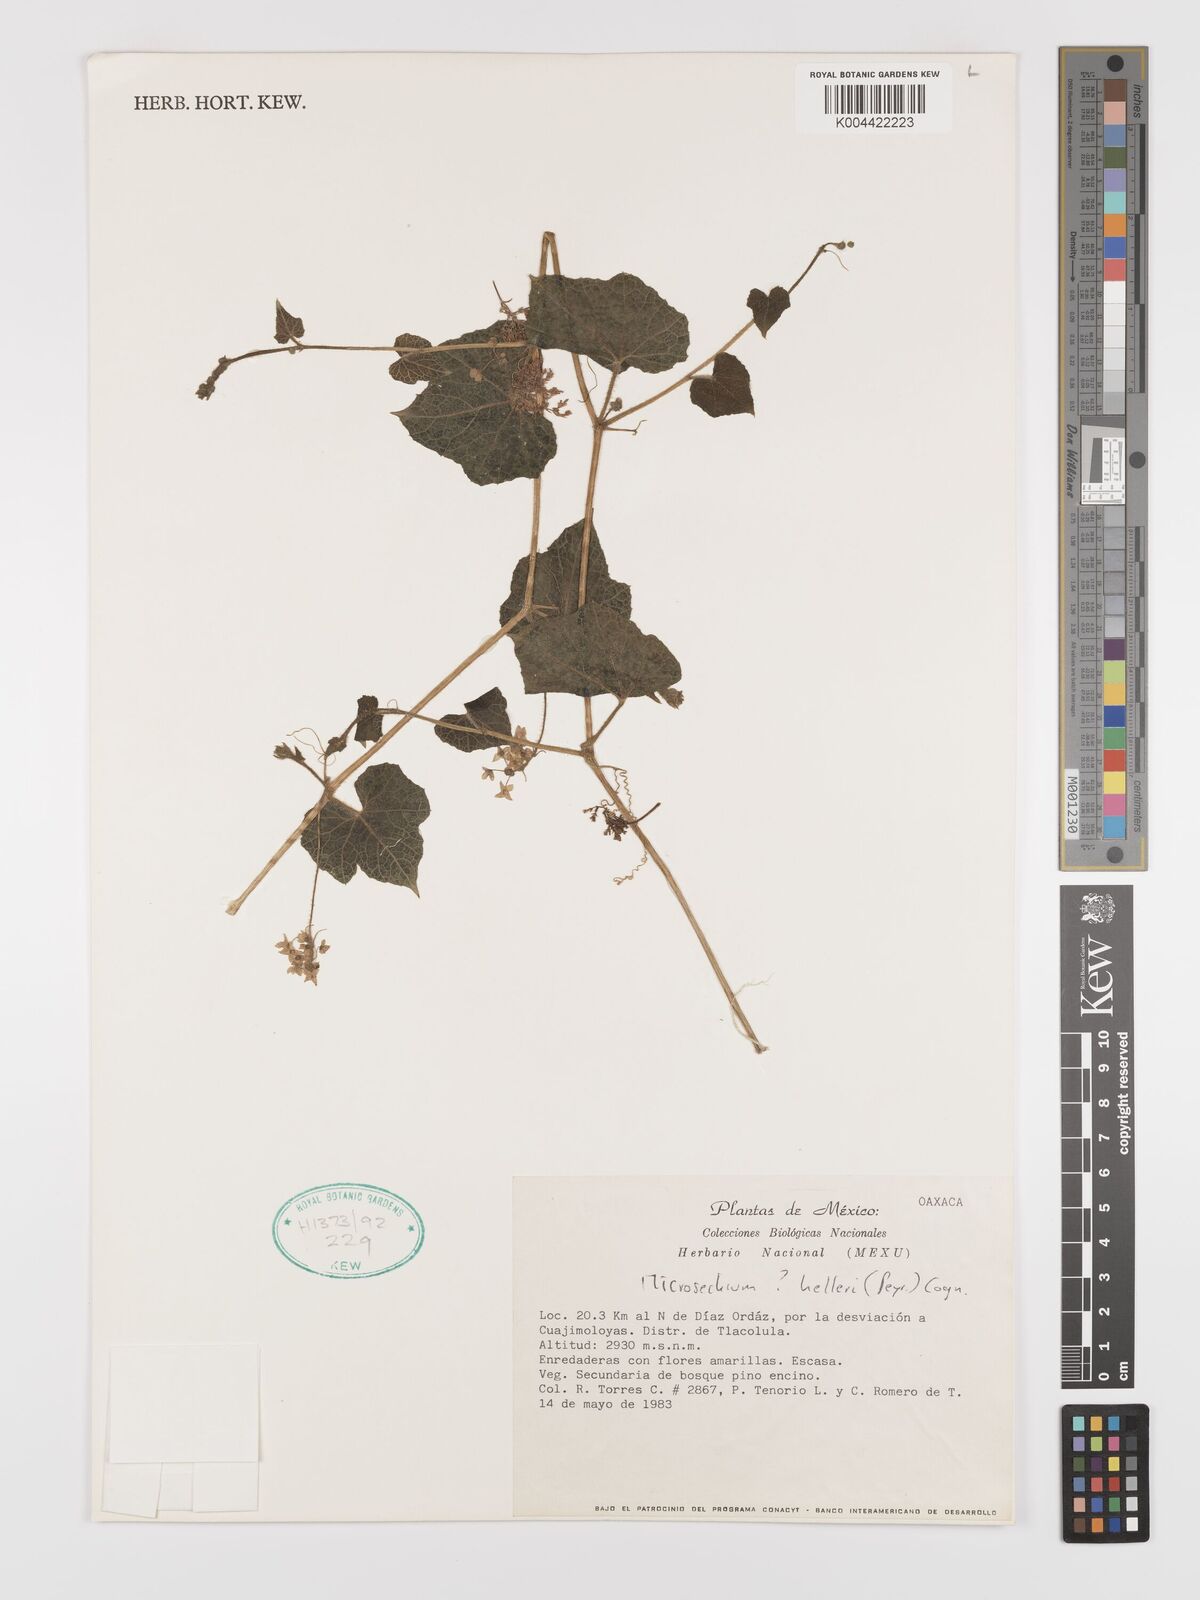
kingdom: Plantae
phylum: Tracheophyta
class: Magnoliopsida
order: Cucurbitales
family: Cucurbitaceae
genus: Microsechium
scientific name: Microsechium palmatum
